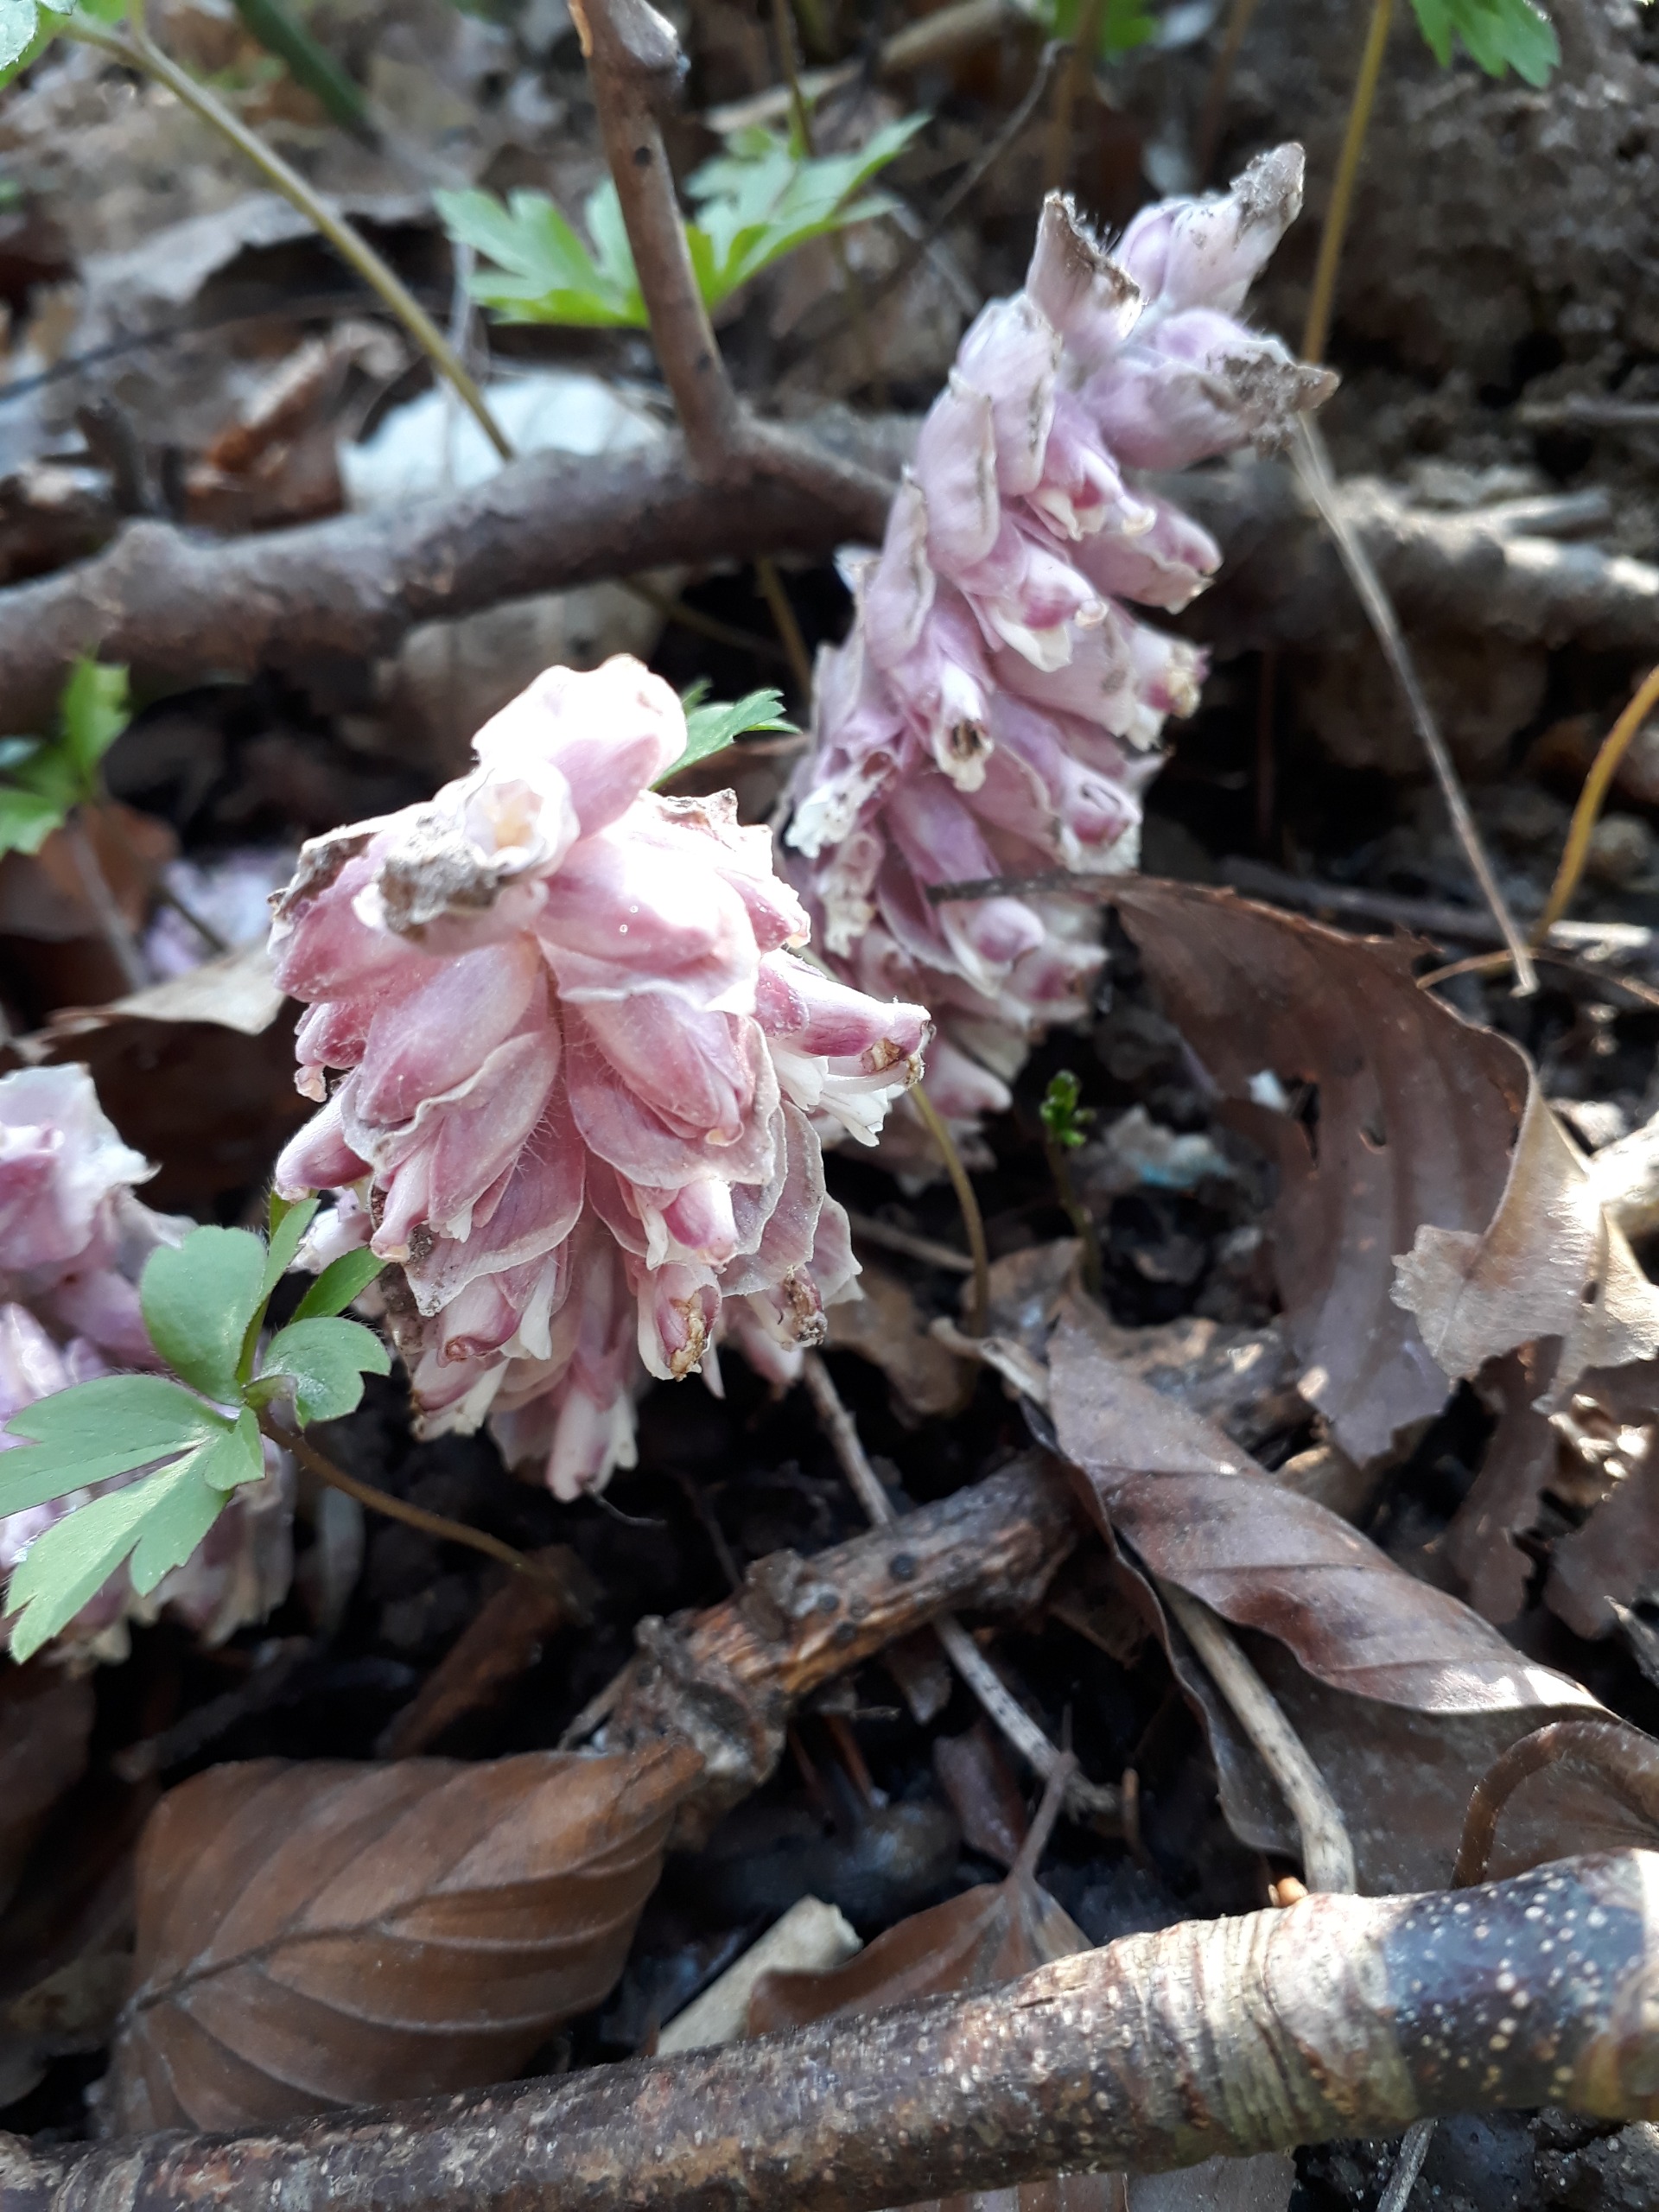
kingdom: Plantae
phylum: Tracheophyta
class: Magnoliopsida
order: Lamiales
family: Orobanchaceae
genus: Lathraea
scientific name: Lathraea squamaria
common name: Skælrod
